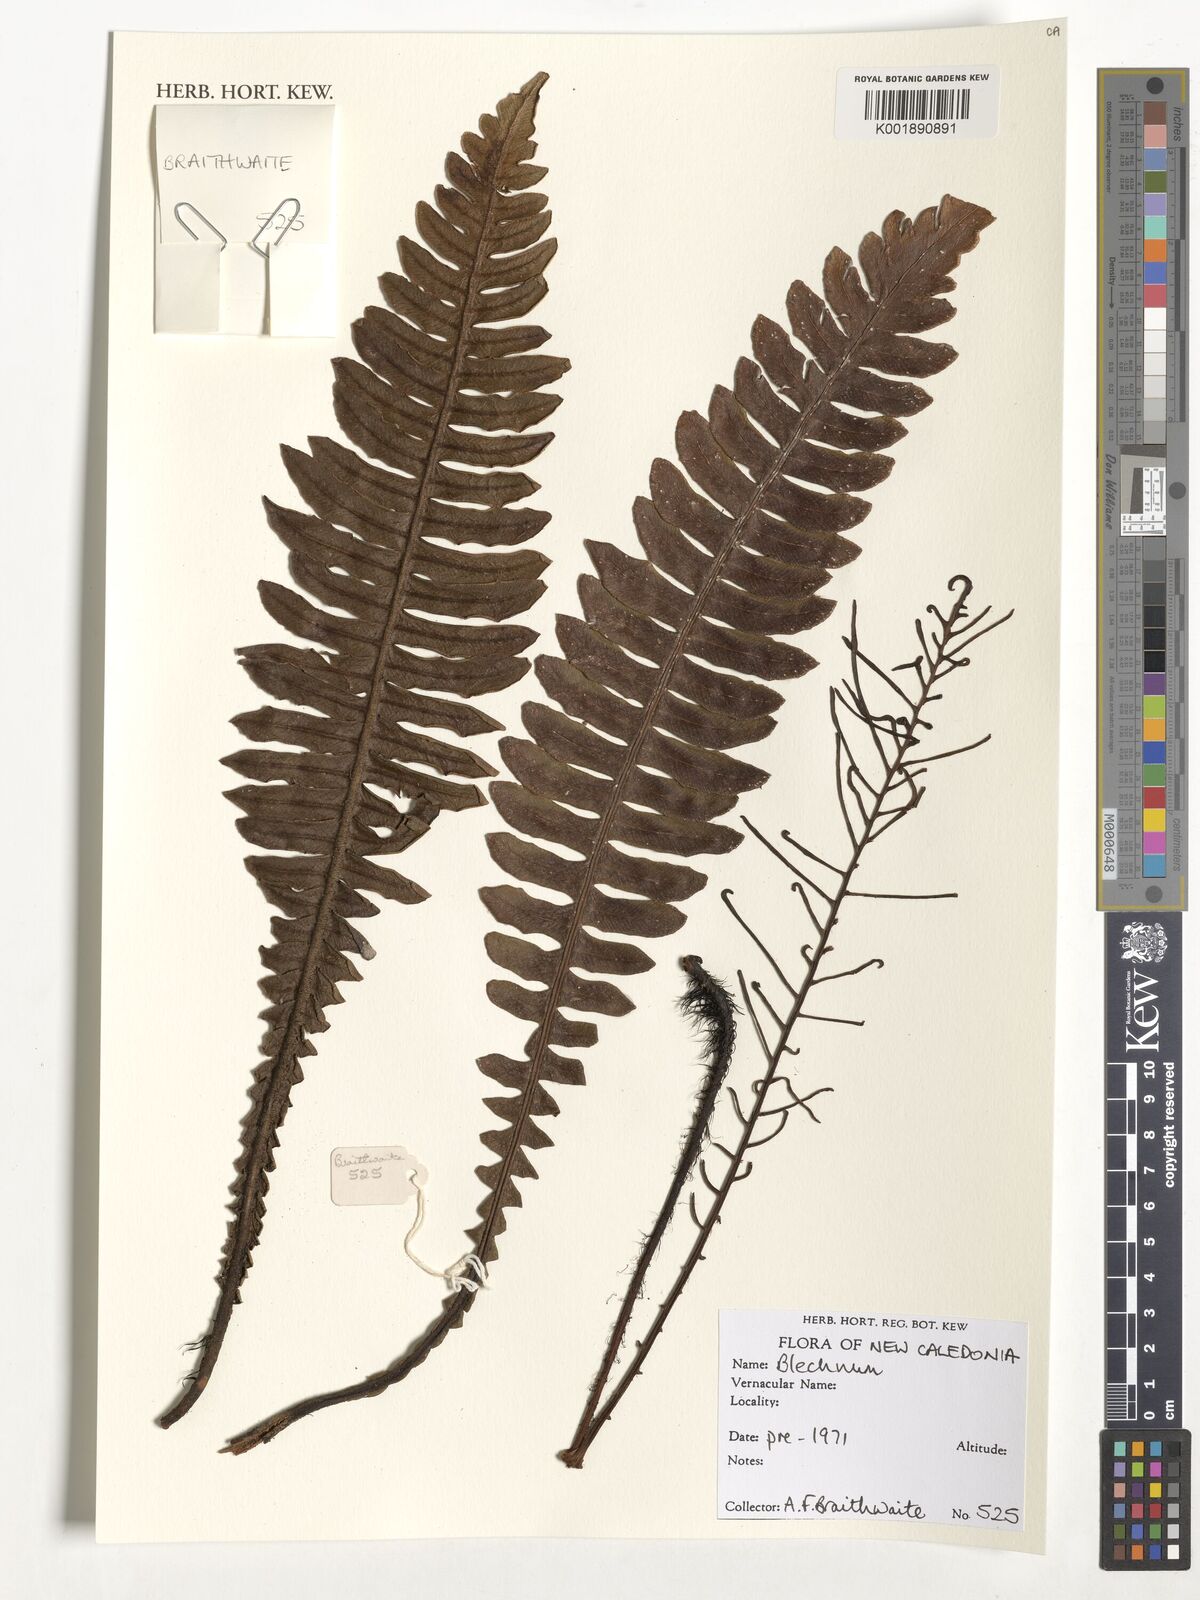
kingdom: Plantae
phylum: Tracheophyta
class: Polypodiopsida
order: Polypodiales
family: Blechnaceae
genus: Blechnum
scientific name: Blechnum
